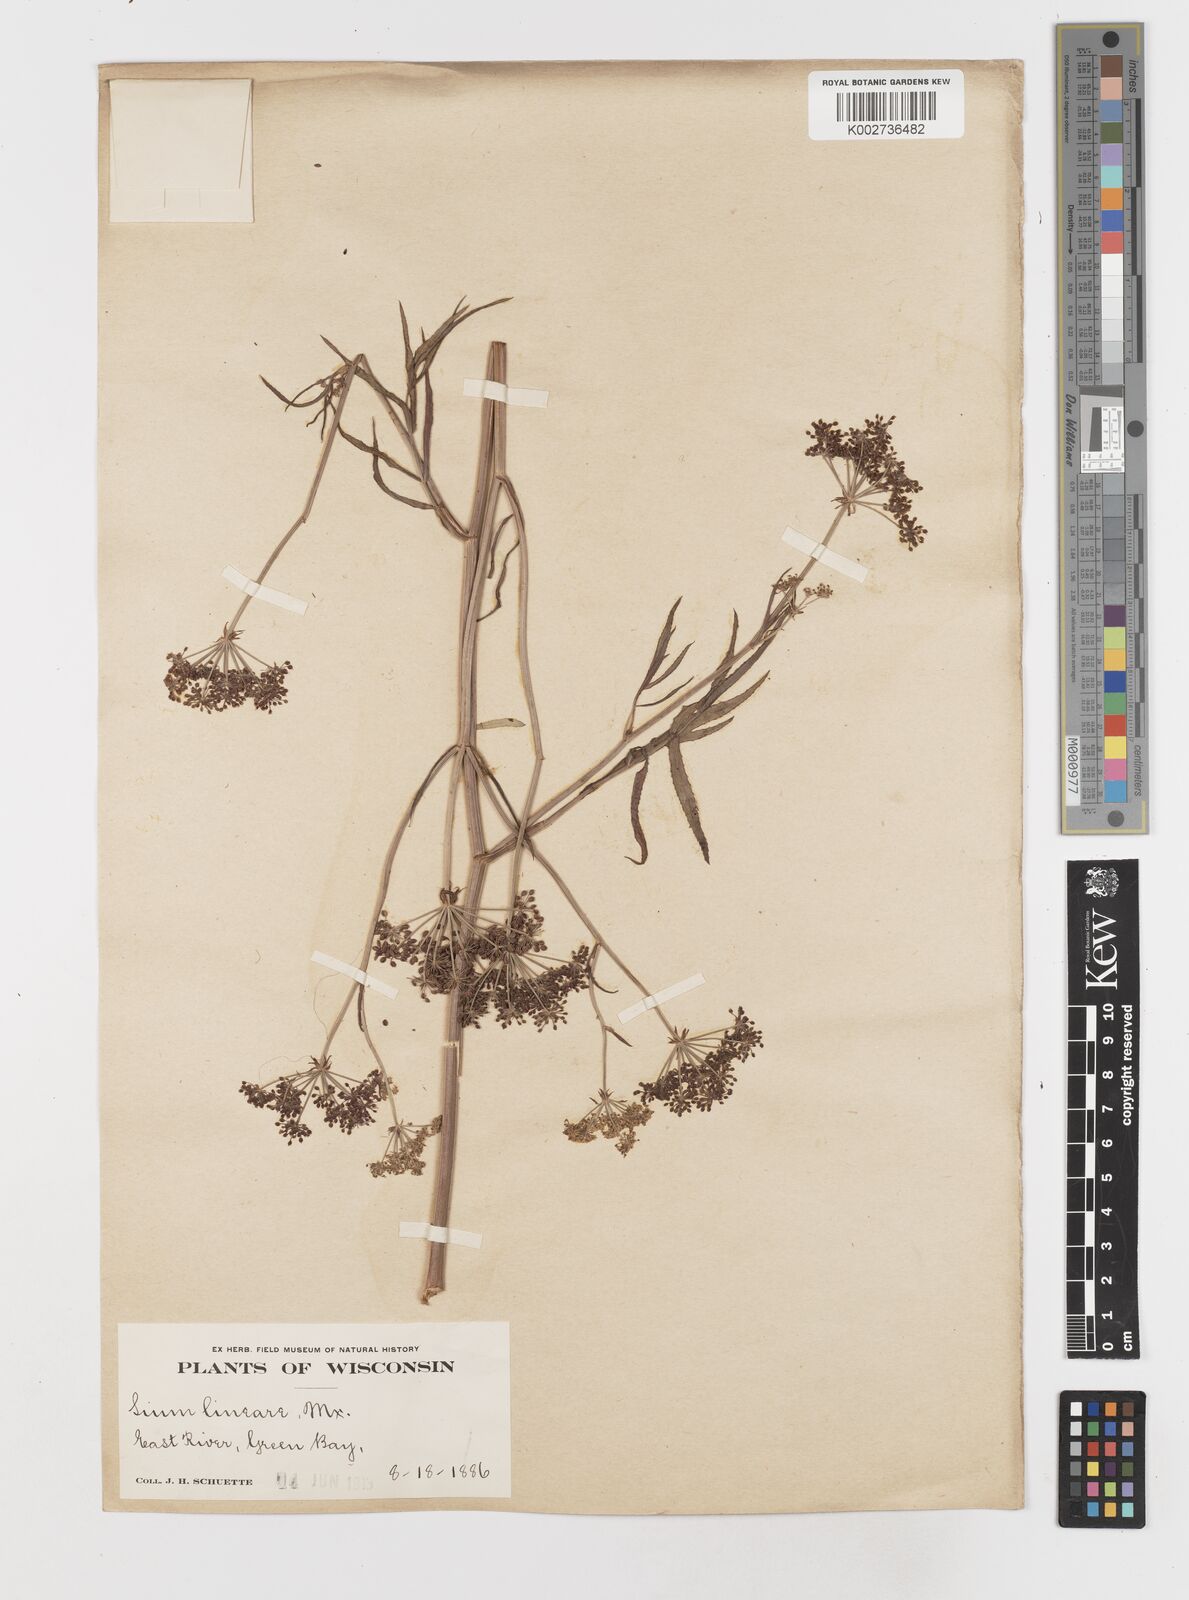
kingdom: Plantae
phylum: Tracheophyta
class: Magnoliopsida
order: Apiales
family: Apiaceae
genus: Sium
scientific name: Sium suave
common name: Hemlock water-parsnip
